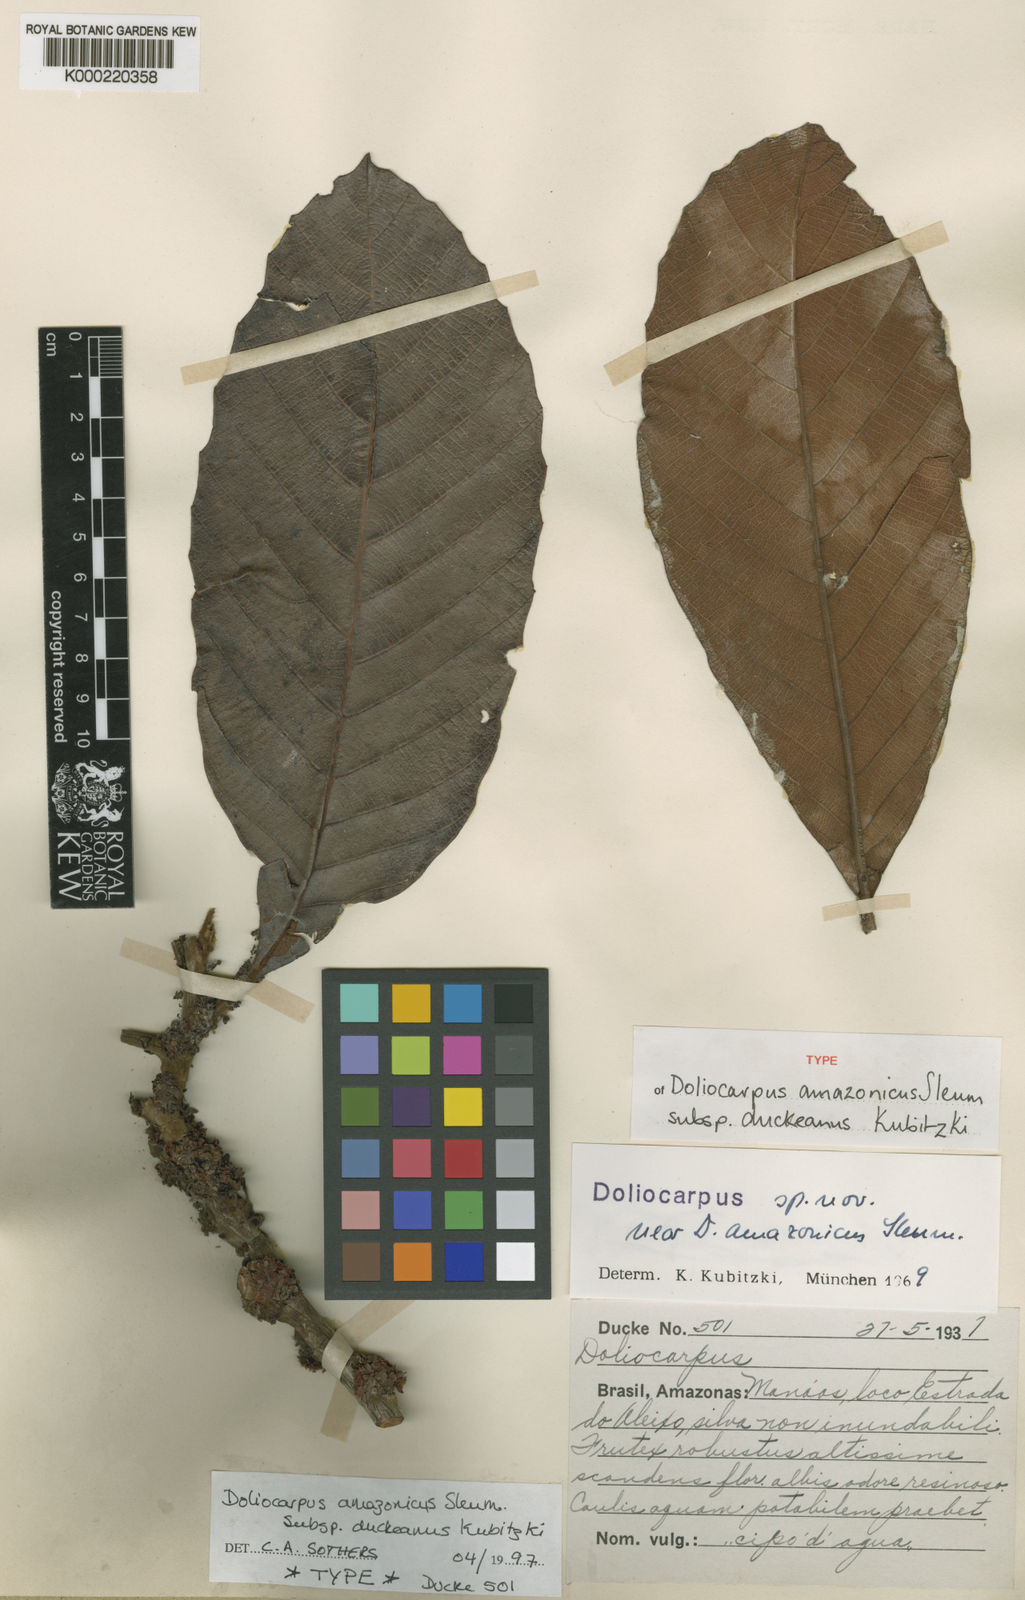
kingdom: Plantae
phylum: Tracheophyta
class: Magnoliopsida
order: Dilleniales
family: Dilleniaceae
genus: Doliocarpus
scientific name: Doliocarpus amazonicus
